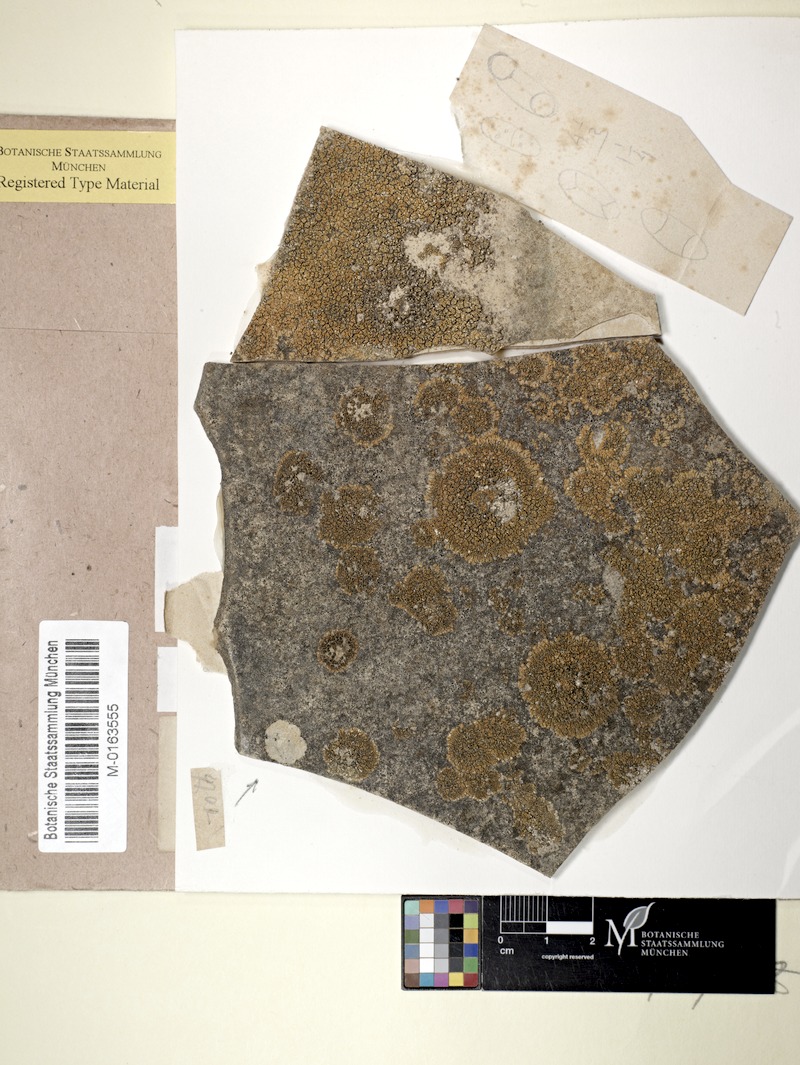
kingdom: Fungi
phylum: Ascomycota
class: Lecanoromycetes
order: Teloschistales
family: Teloschistaceae
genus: Calogaya
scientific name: Calogaya decipiens
